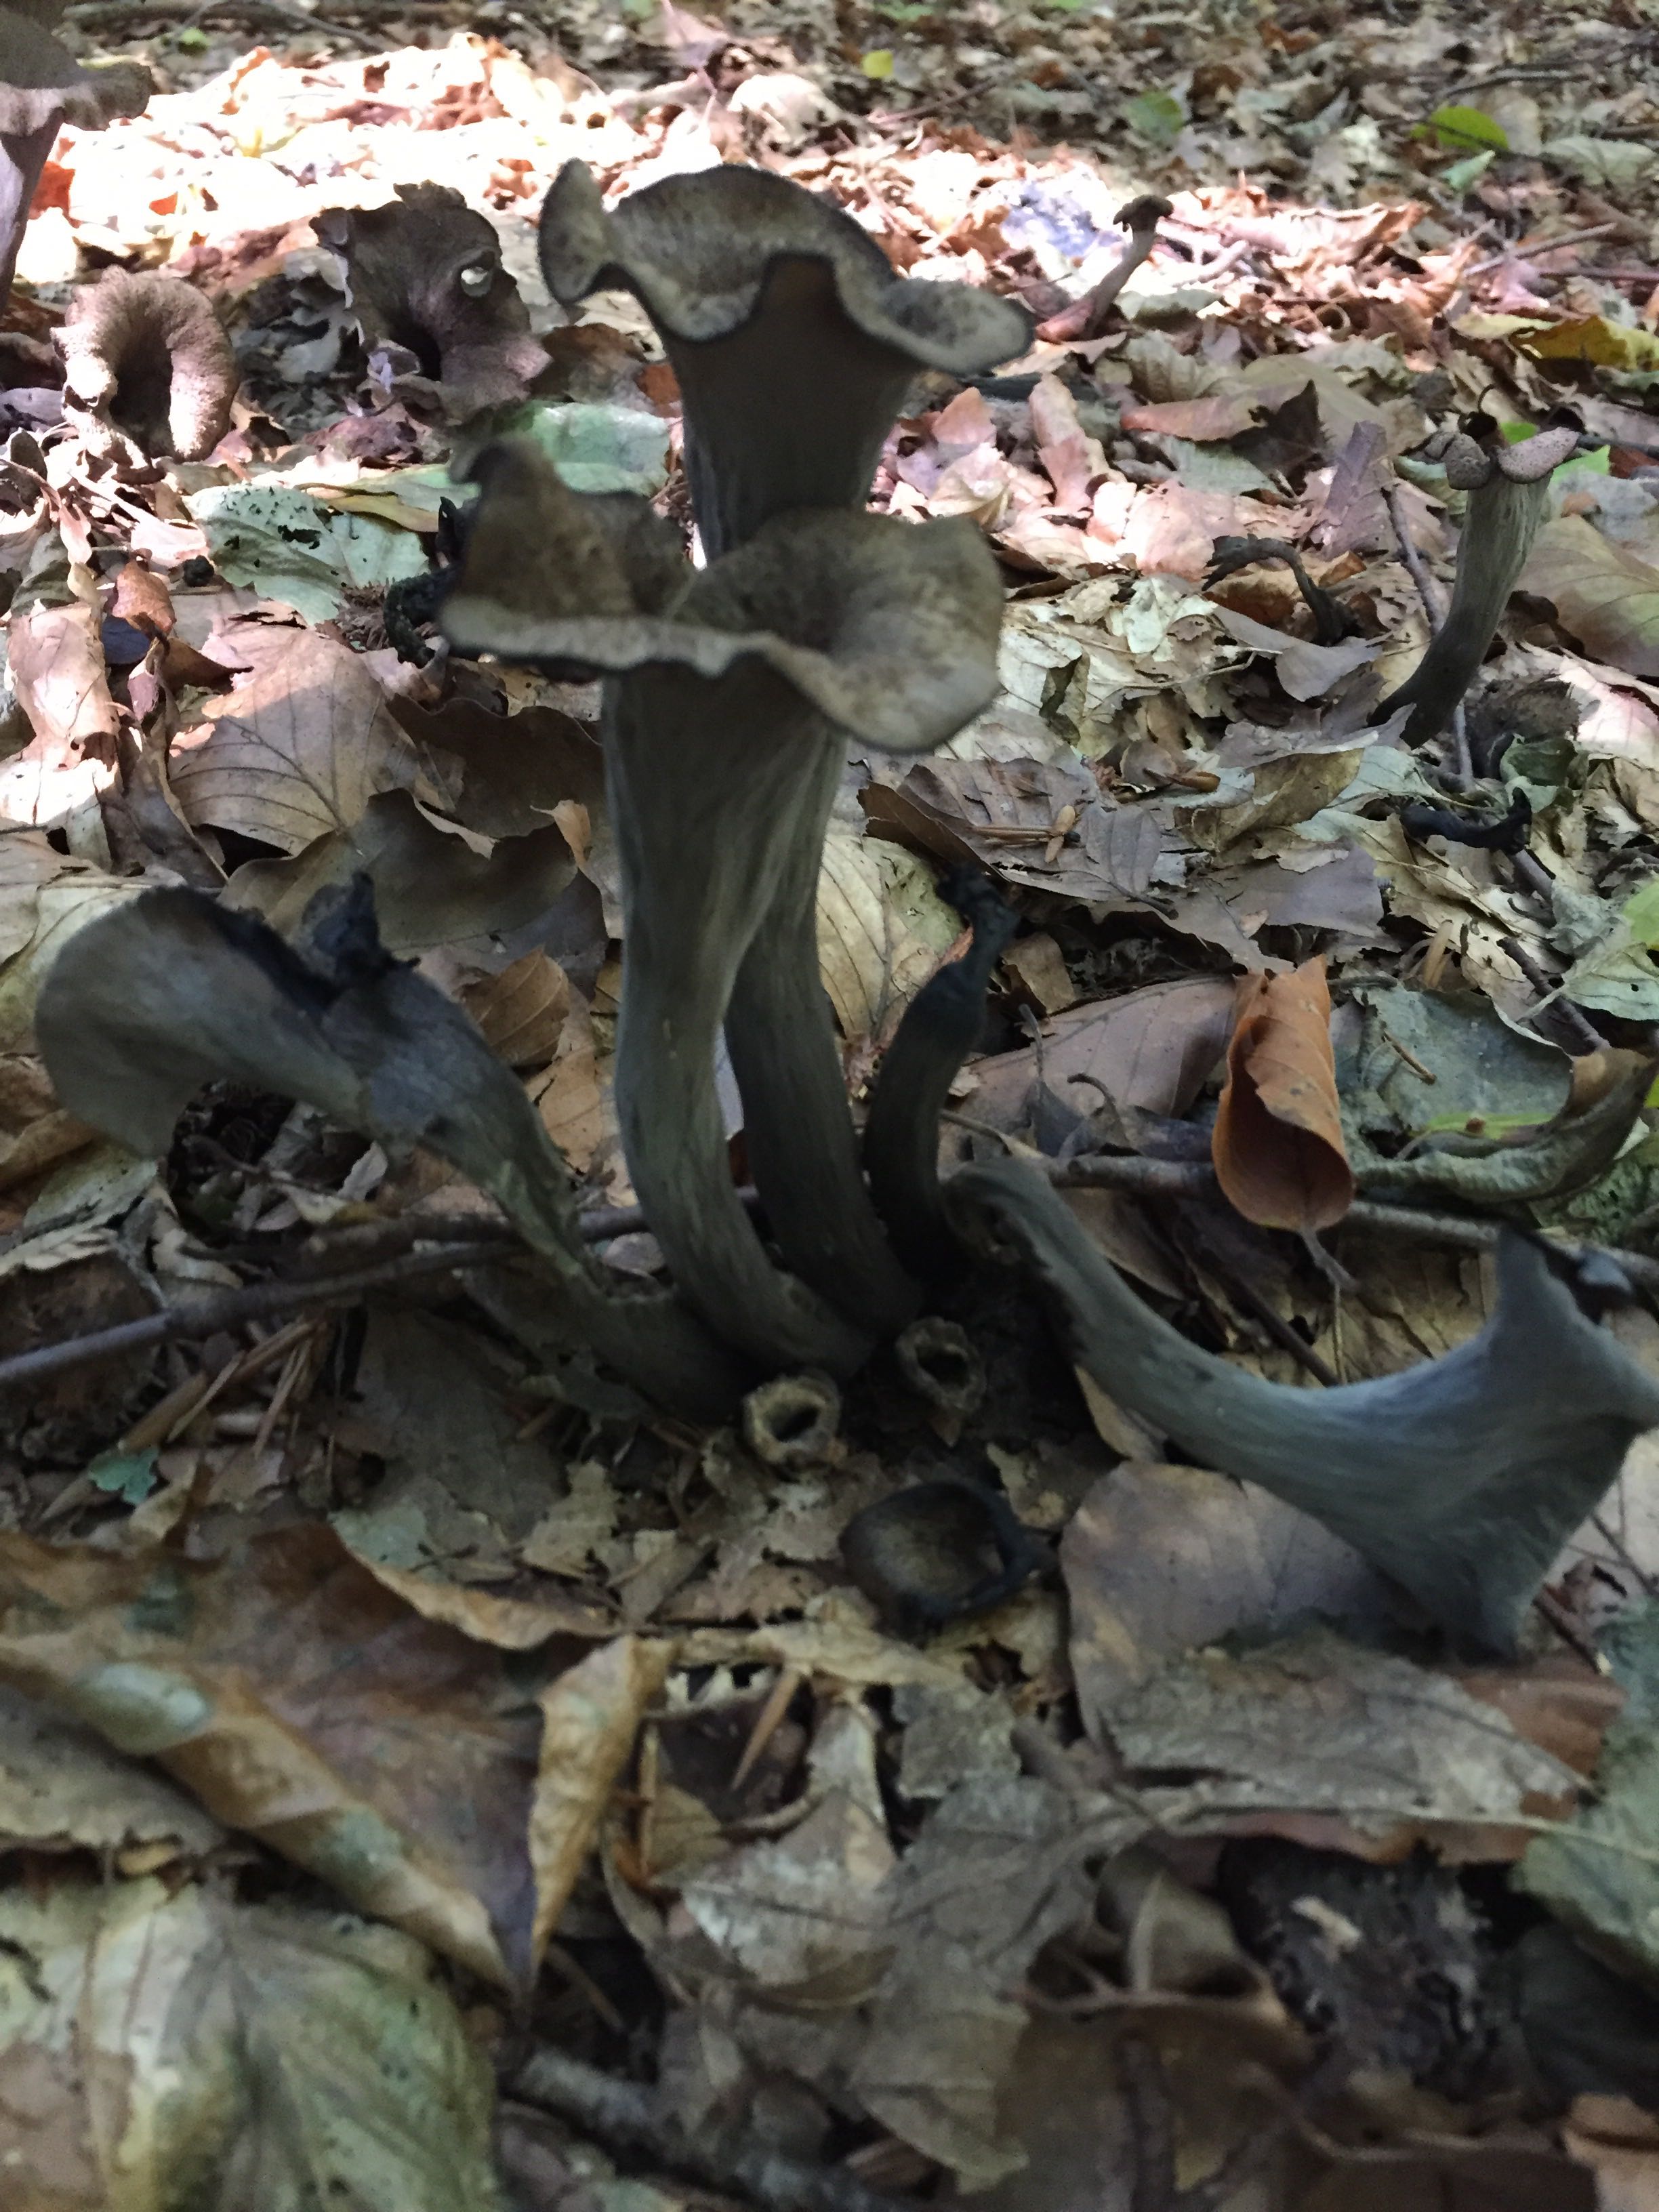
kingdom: Fungi
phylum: Basidiomycota
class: Agaricomycetes
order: Cantharellales
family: Hydnaceae
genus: Craterellus
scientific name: Craterellus cornucopioides
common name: trompetsvamp
